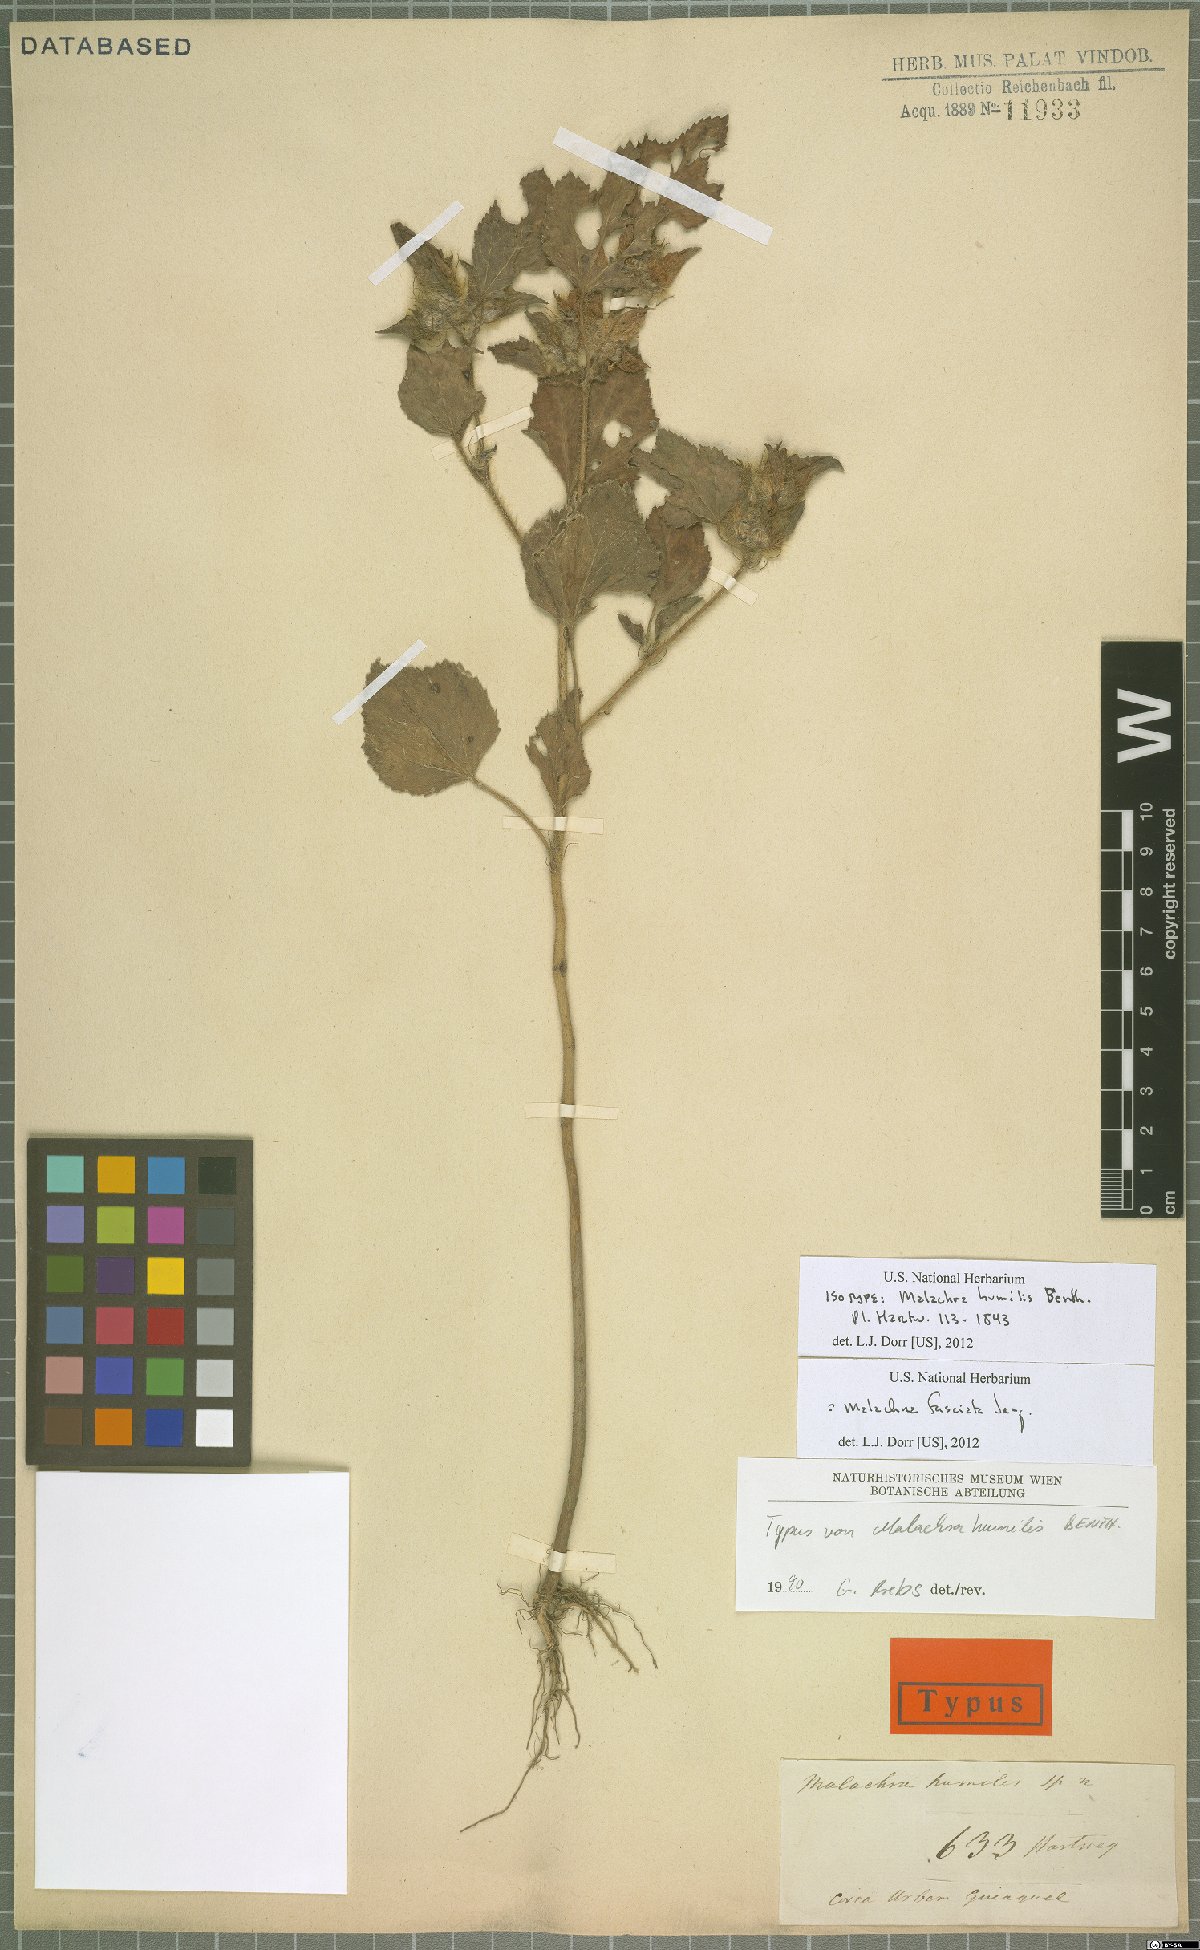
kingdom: Plantae
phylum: Tracheophyta
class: Magnoliopsida
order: Malvales
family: Malvaceae
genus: Malachra
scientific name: Malachra fasciata
